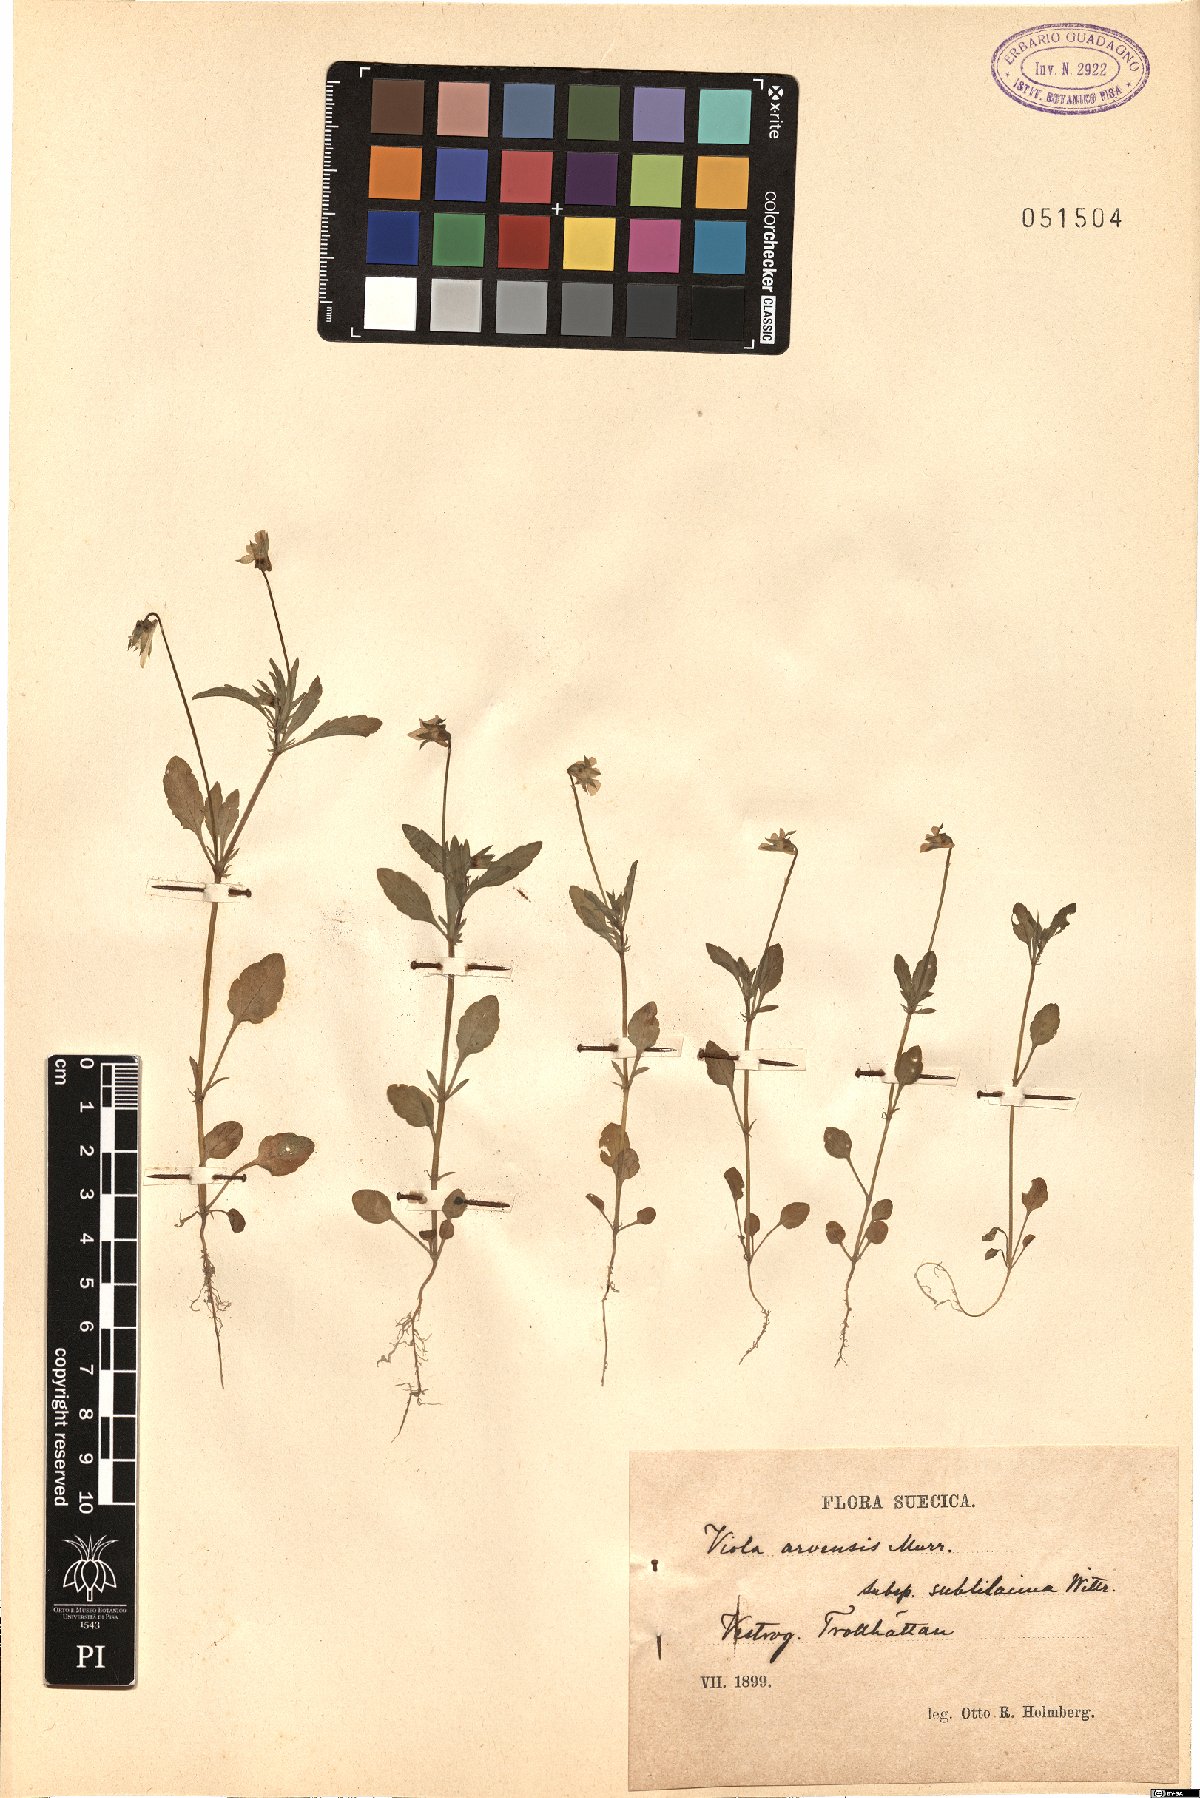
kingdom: Plantae
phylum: Tracheophyta
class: Magnoliopsida
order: Malpighiales
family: Violaceae
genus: Viola
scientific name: Viola arvensis
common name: Field pansy
